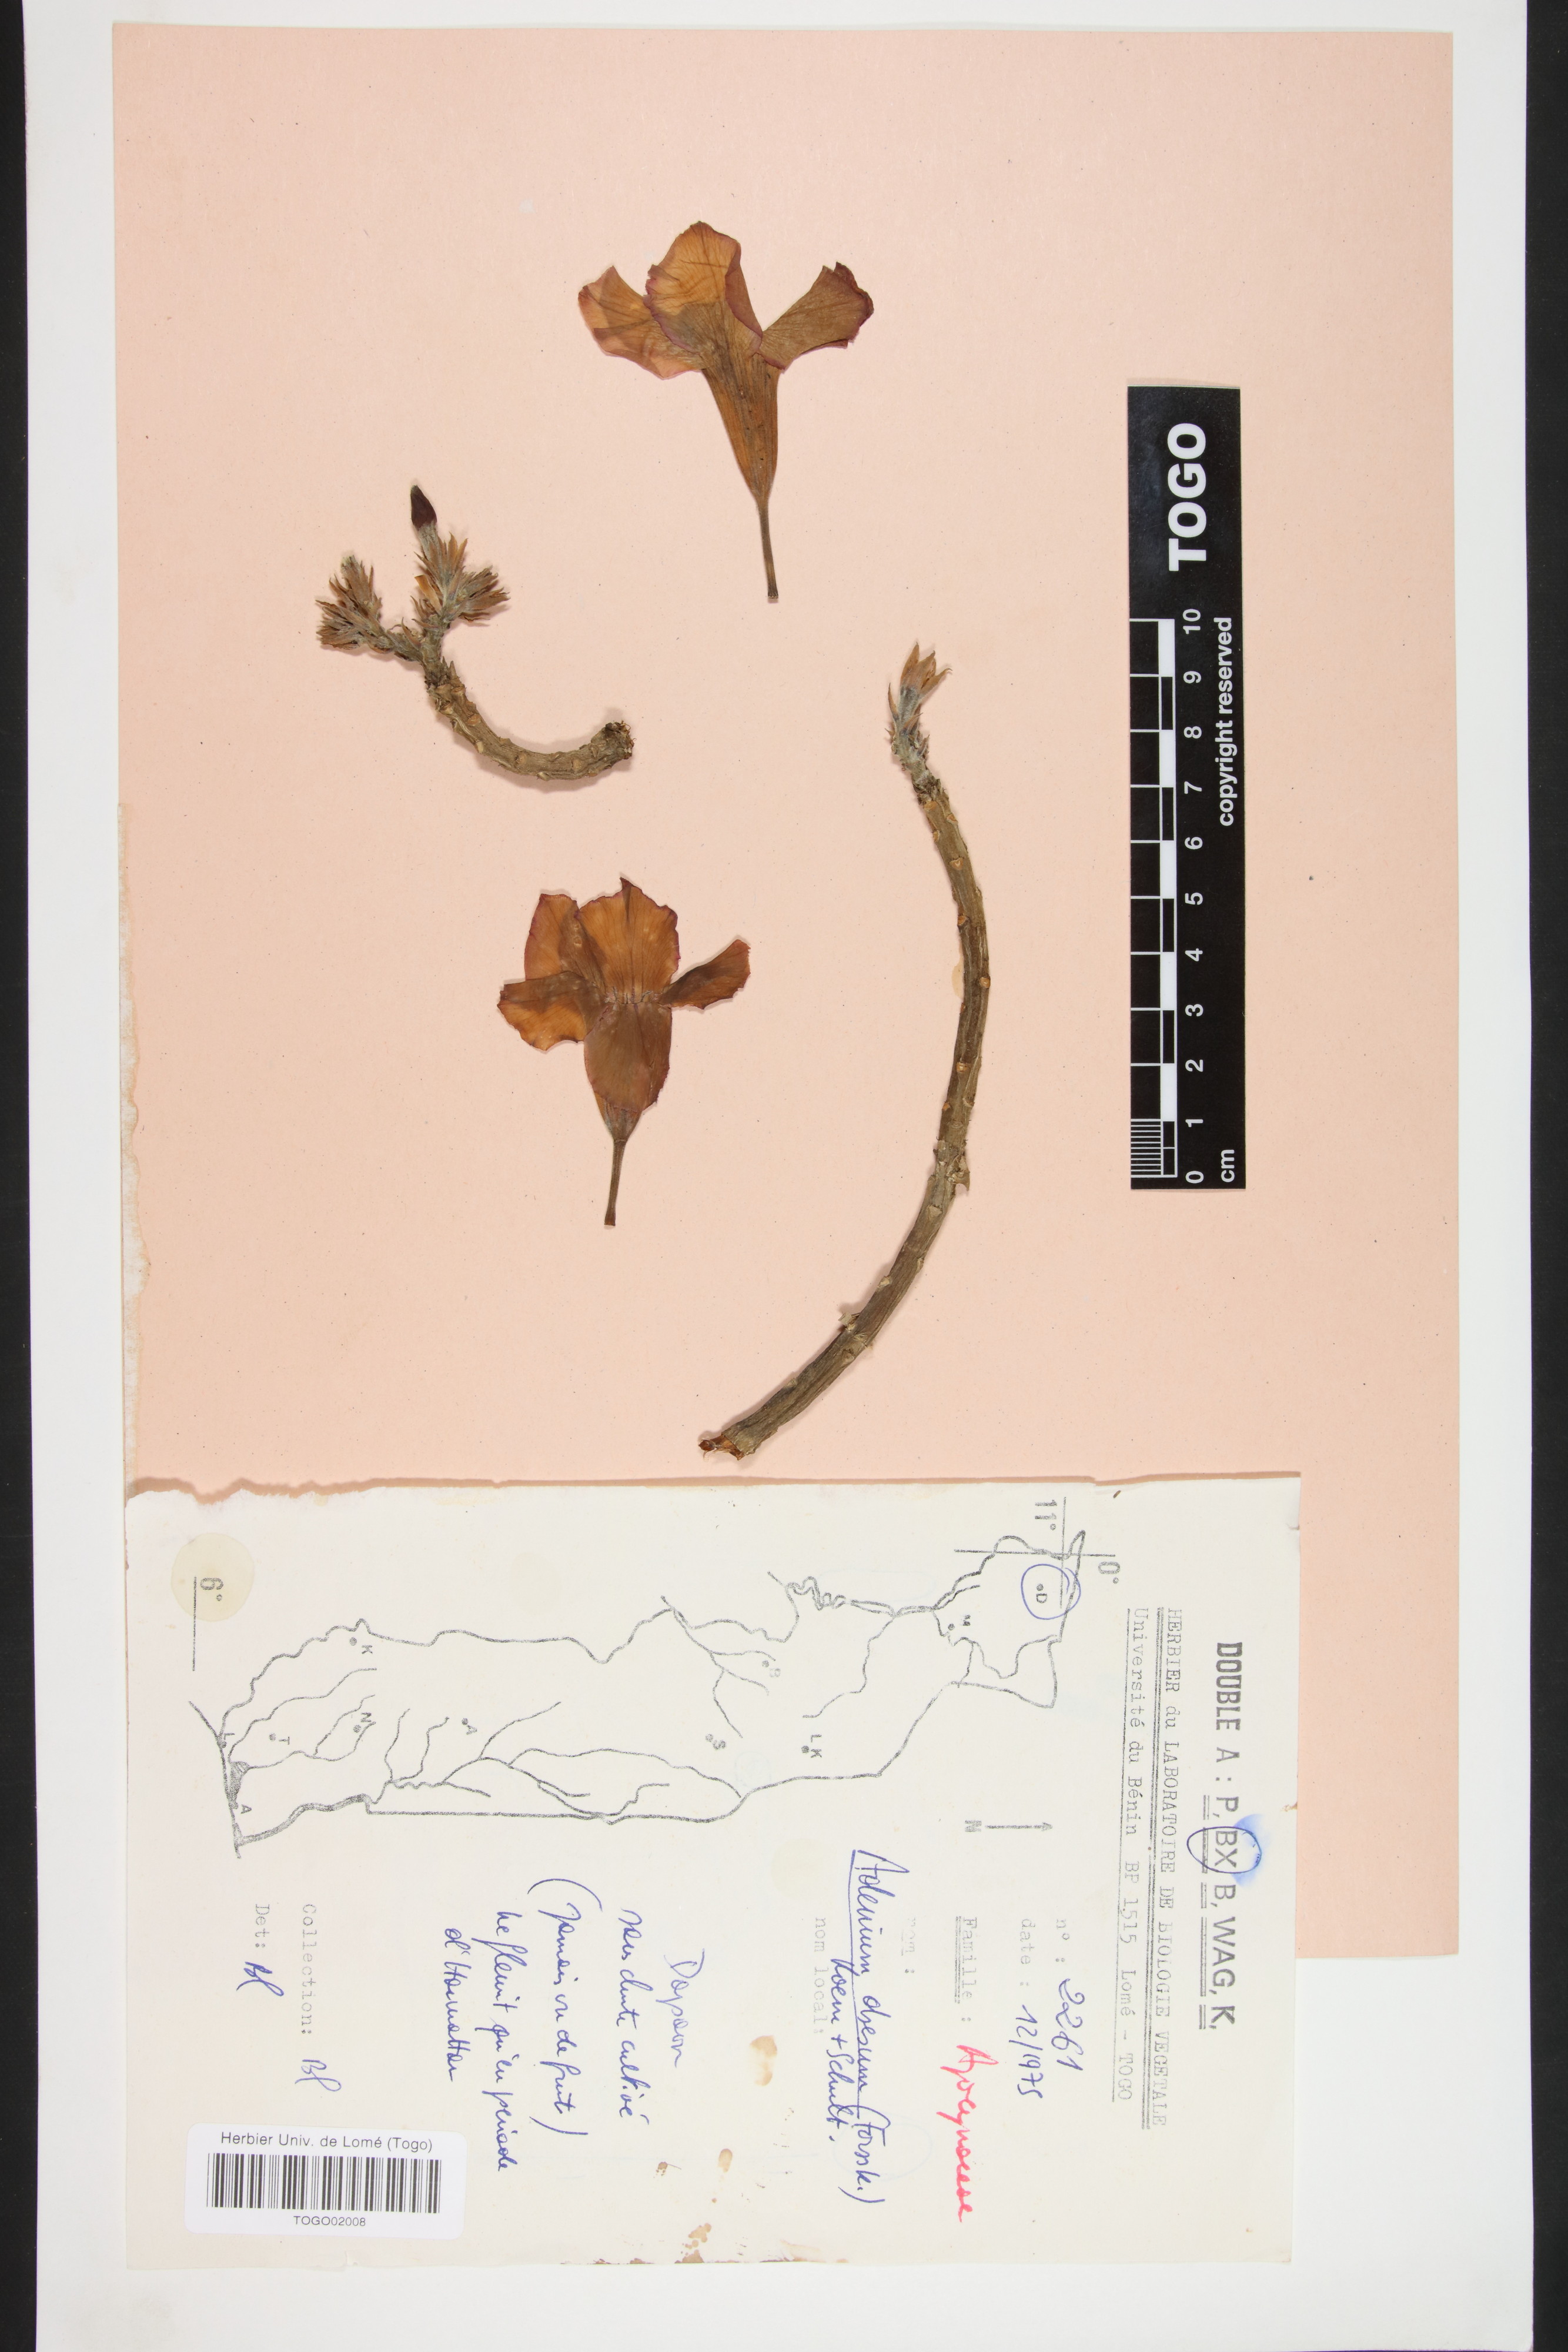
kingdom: Plantae
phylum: Tracheophyta
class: Magnoliopsida
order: Gentianales
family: Apocynaceae
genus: Adenium
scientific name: Adenium obesum
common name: Desert-rose
